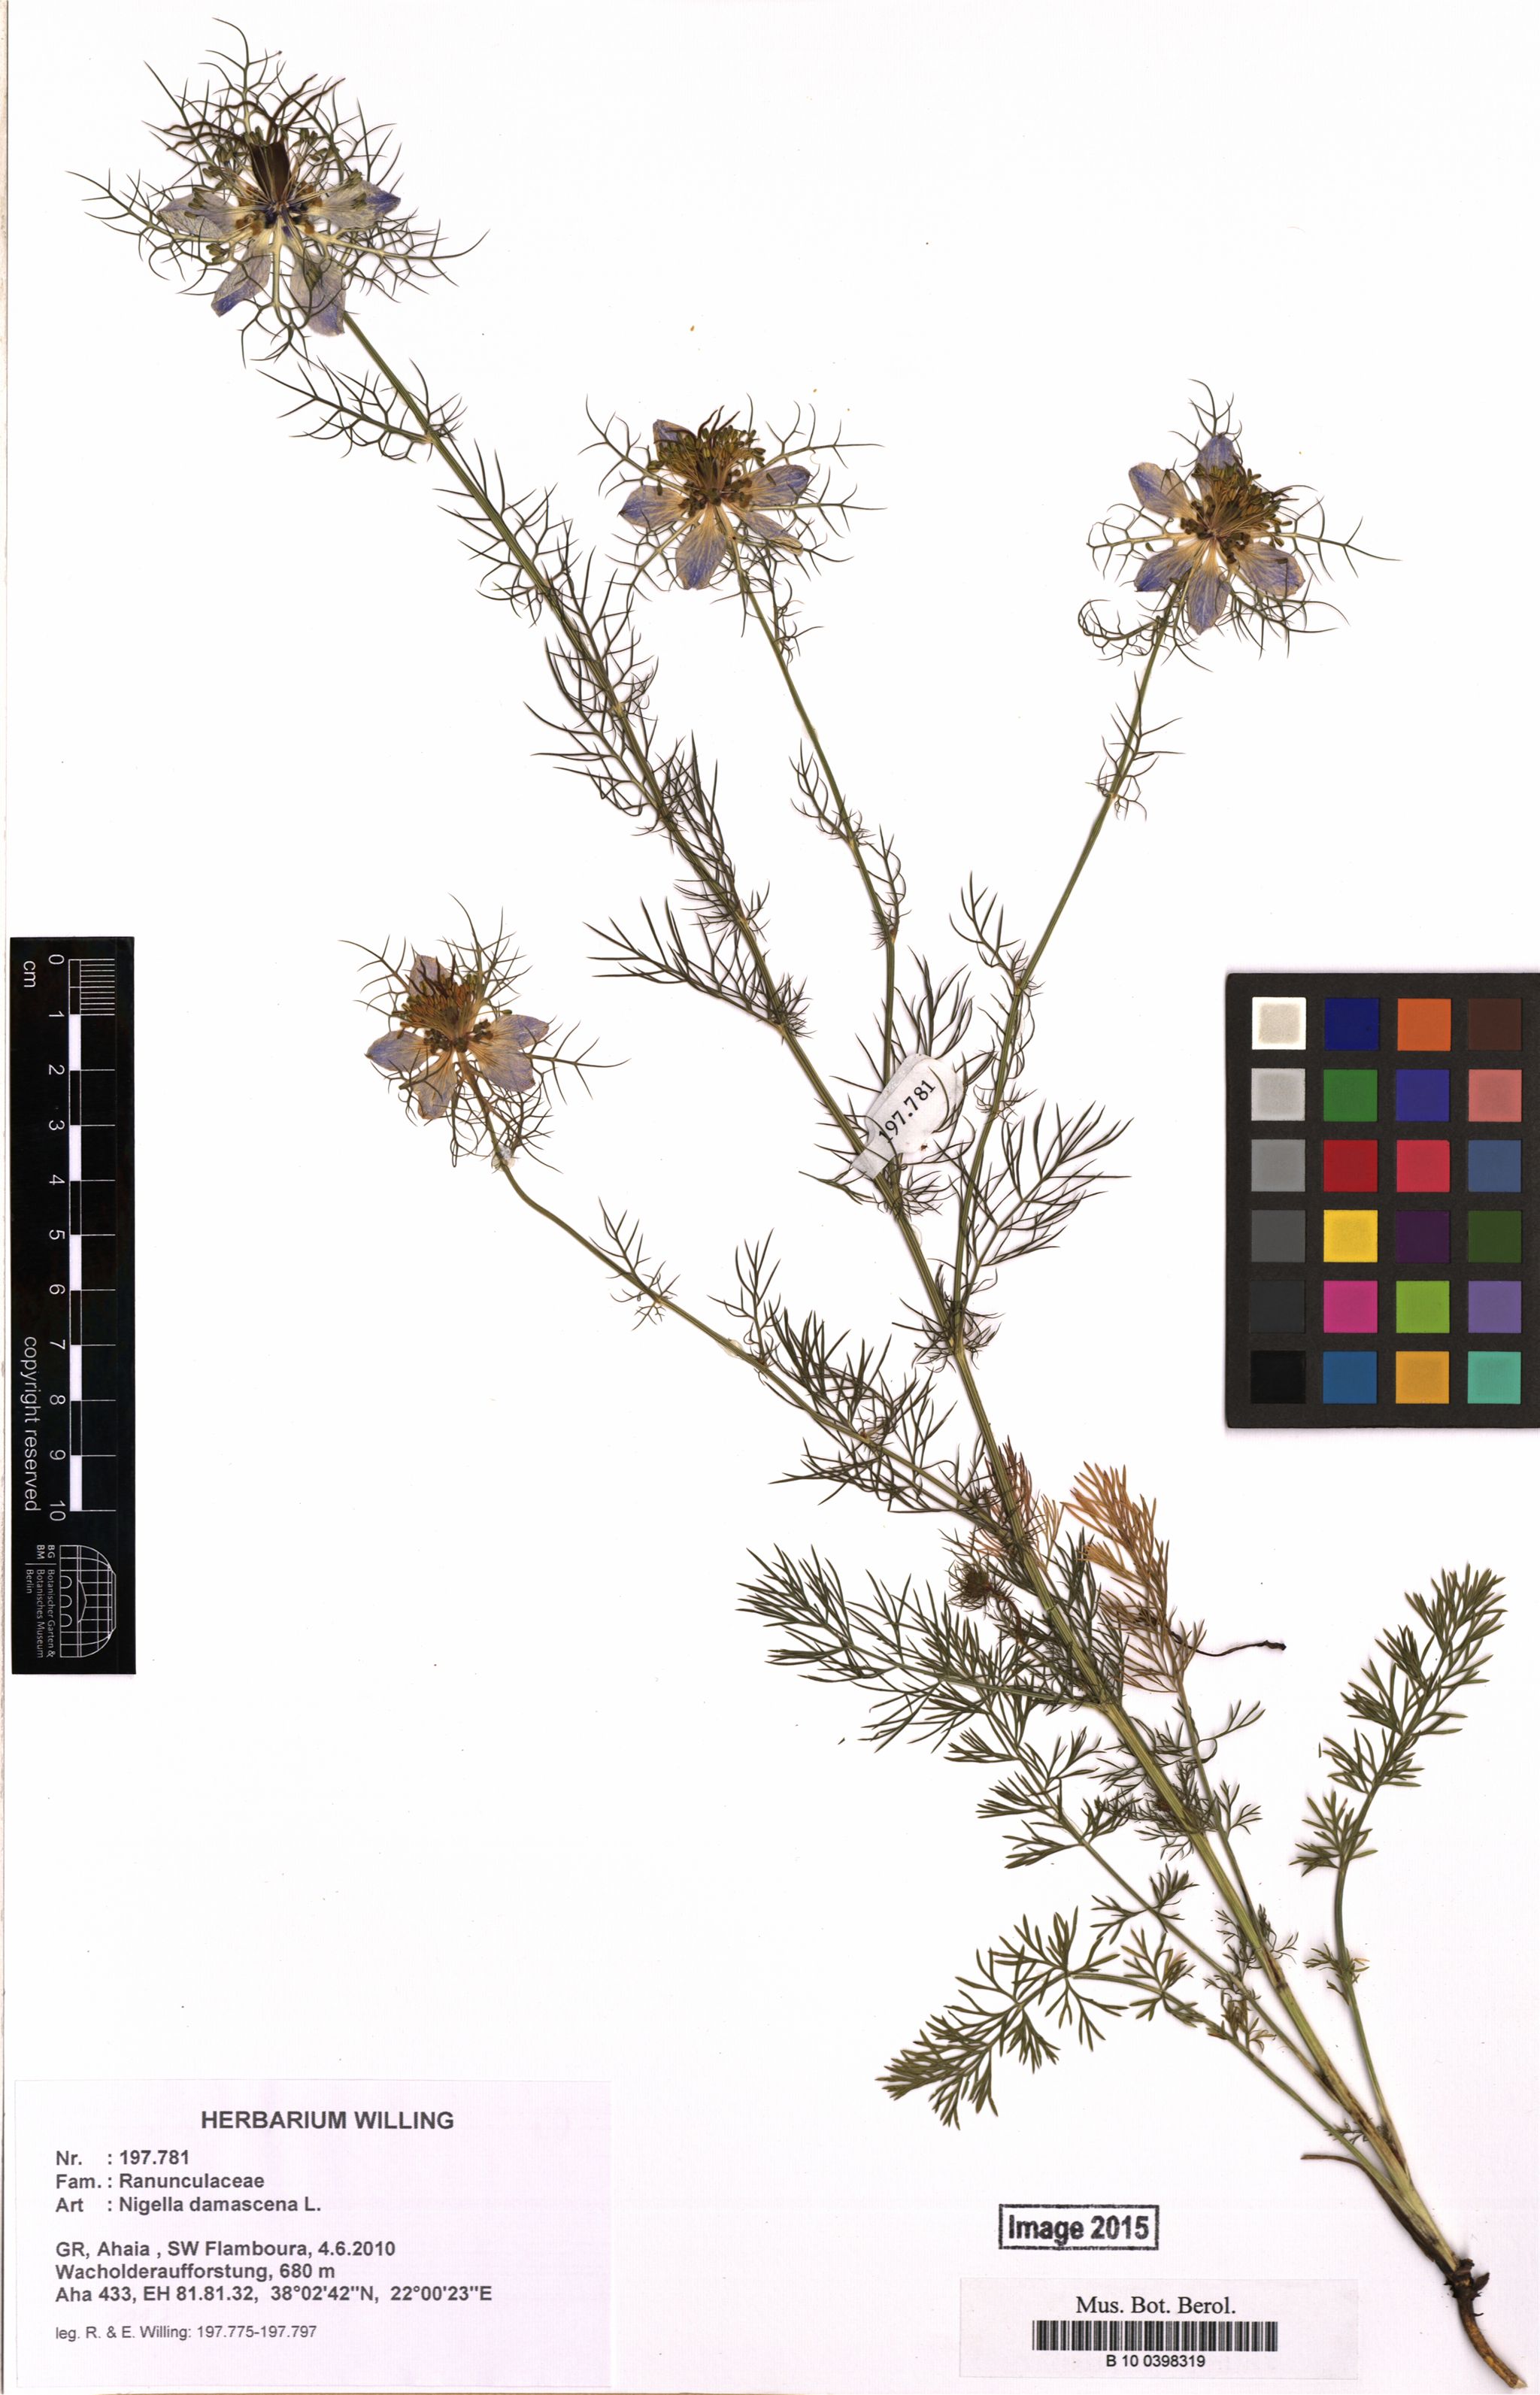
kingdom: Plantae
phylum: Tracheophyta
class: Magnoliopsida
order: Ranunculales
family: Ranunculaceae
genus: Nigella
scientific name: Nigella damascena
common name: Love-in-a-mist
